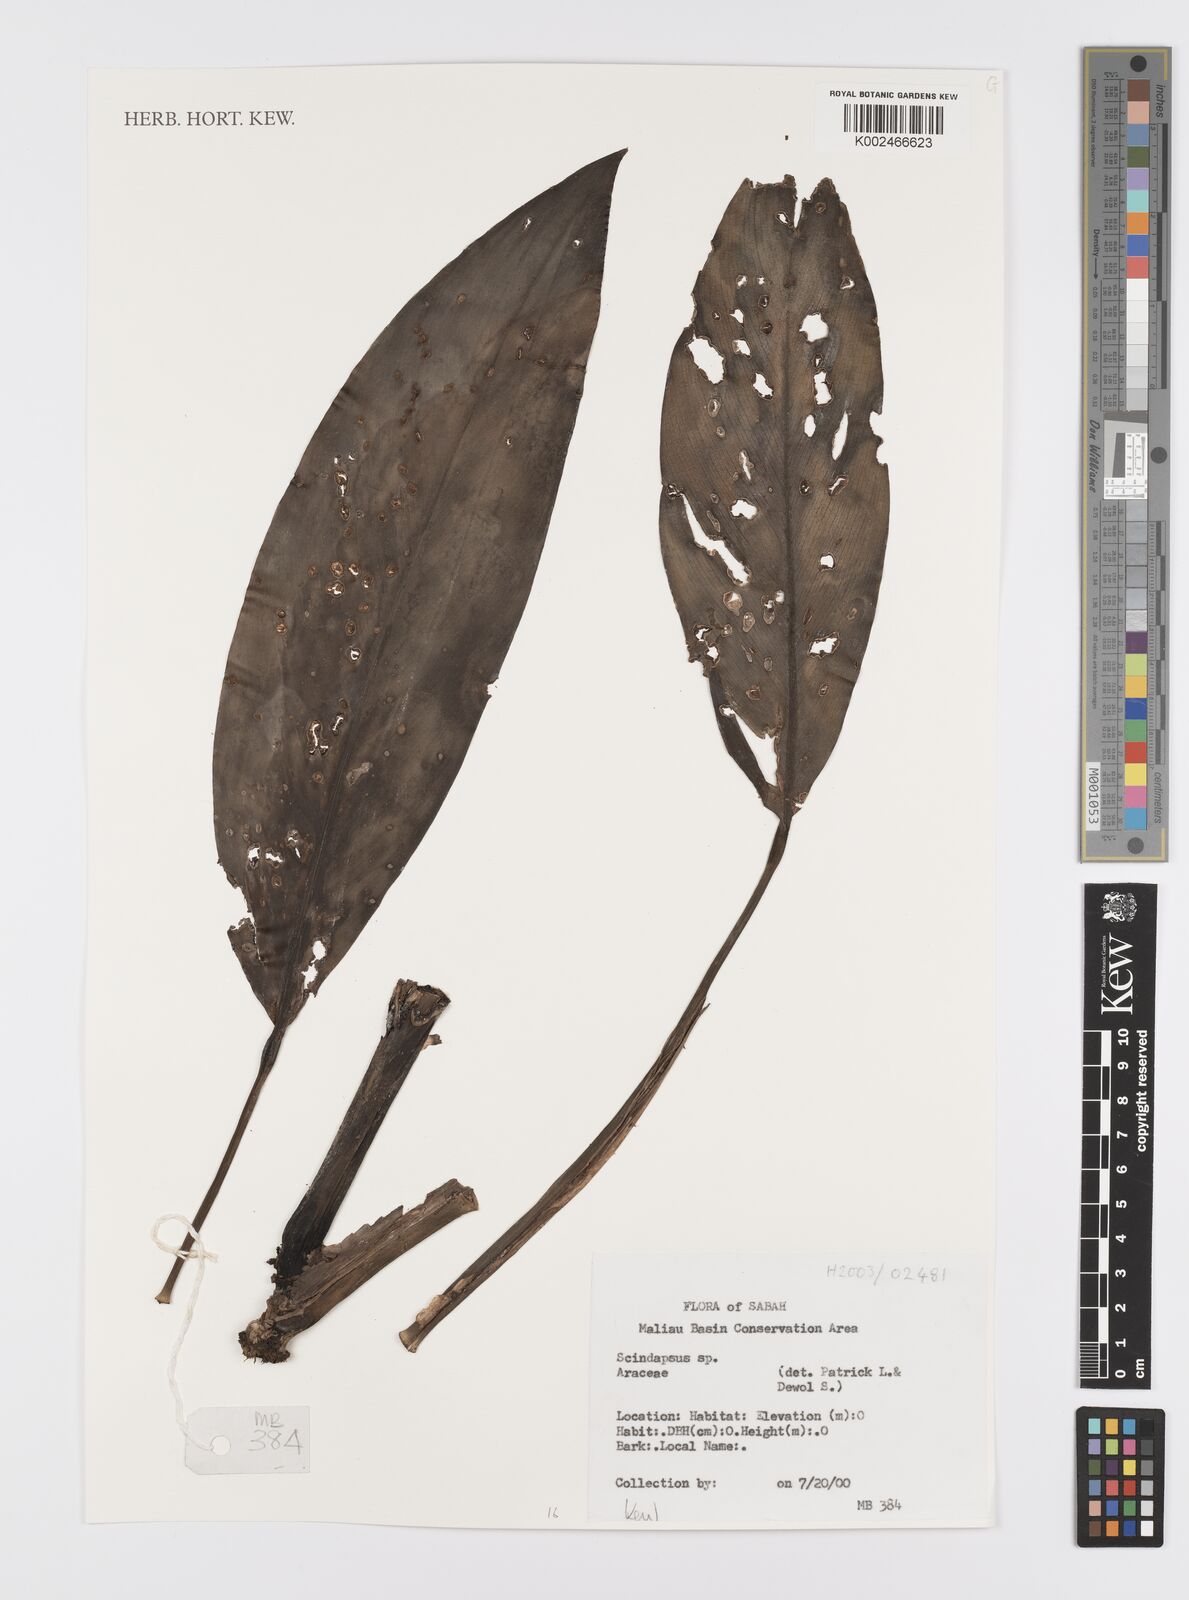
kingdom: Plantae
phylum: Tracheophyta
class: Liliopsida
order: Alismatales
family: Araceae
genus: Scindapsus
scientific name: Scindapsus
